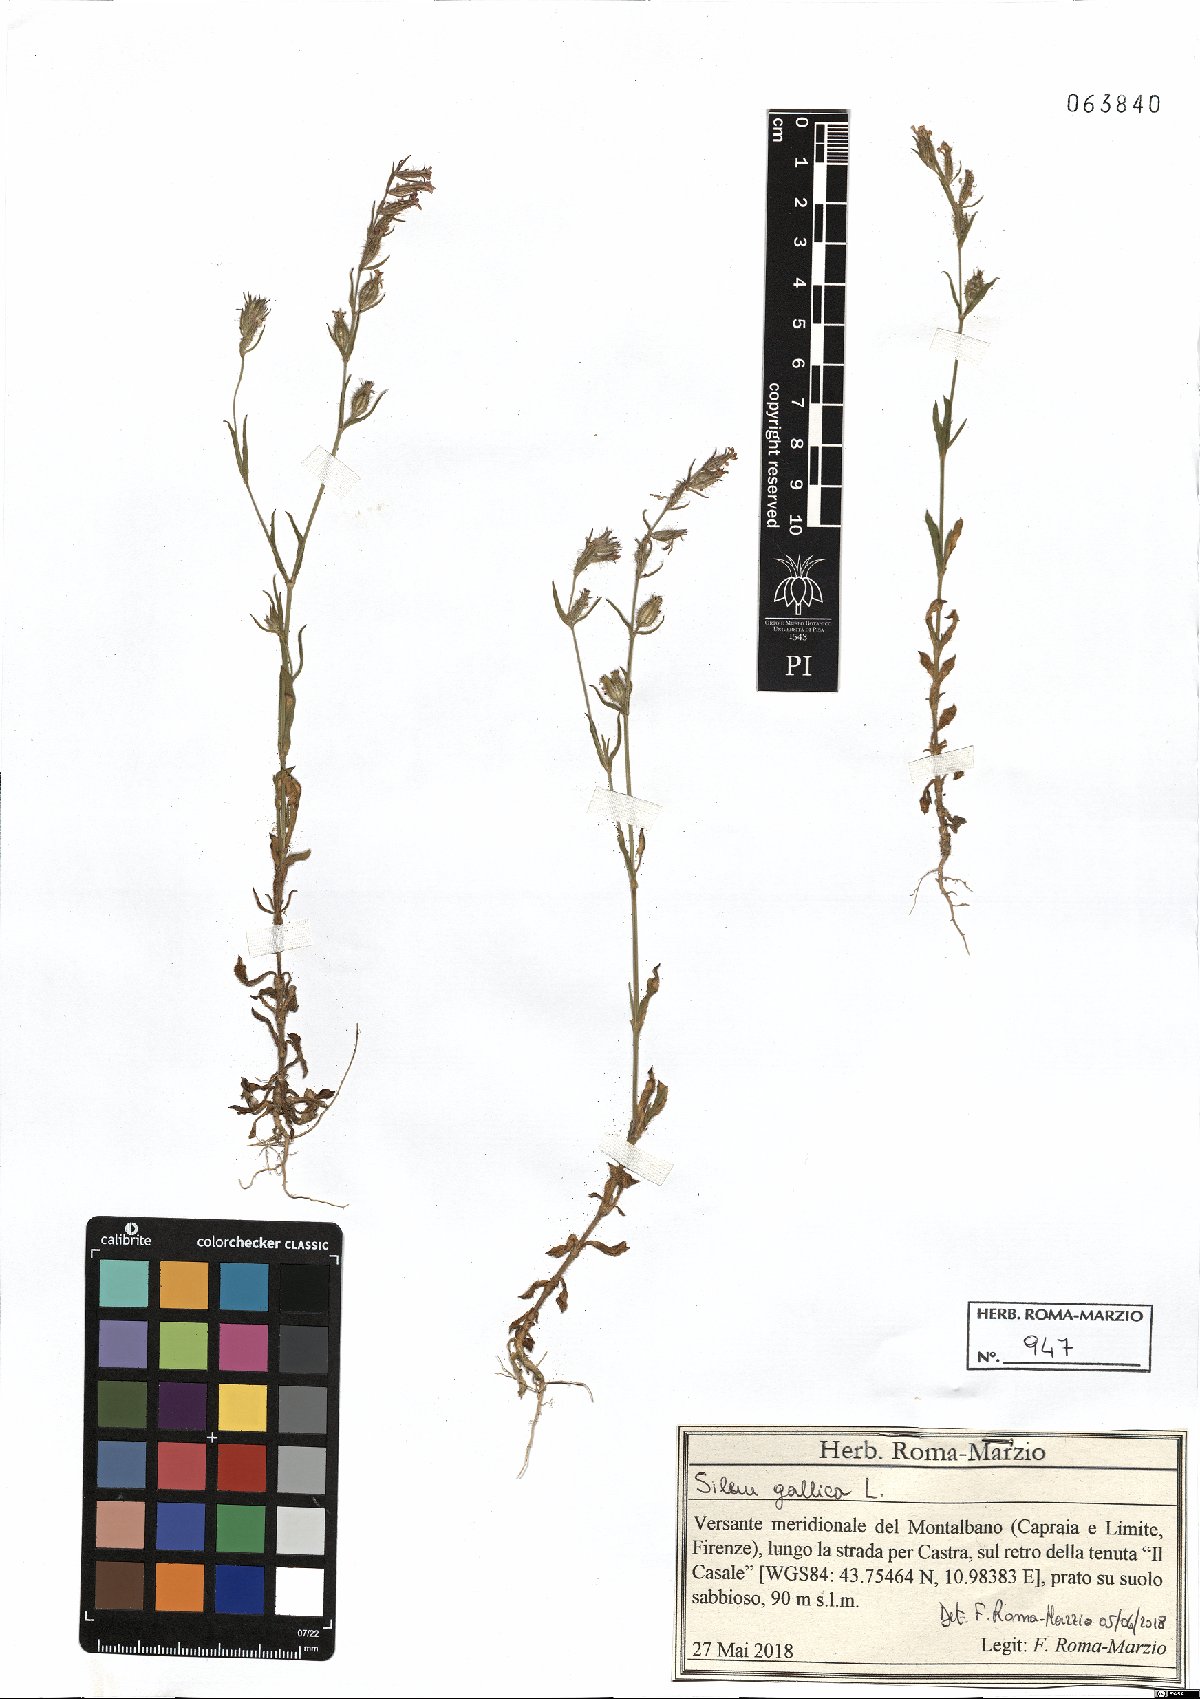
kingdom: Plantae
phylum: Tracheophyta
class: Magnoliopsida
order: Caryophyllales
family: Caryophyllaceae
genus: Silene
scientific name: Silene gallica
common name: Small-flowered catchfly
